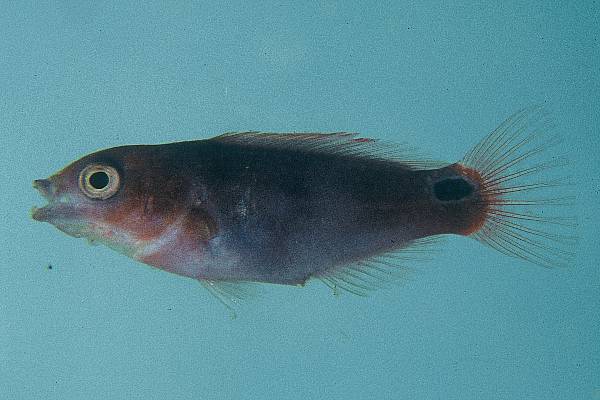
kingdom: Animalia
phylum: Chordata
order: Perciformes
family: Labridae
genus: Cirrhilabrus
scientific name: Cirrhilabrus exquisitus
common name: Exquisite wrasse
